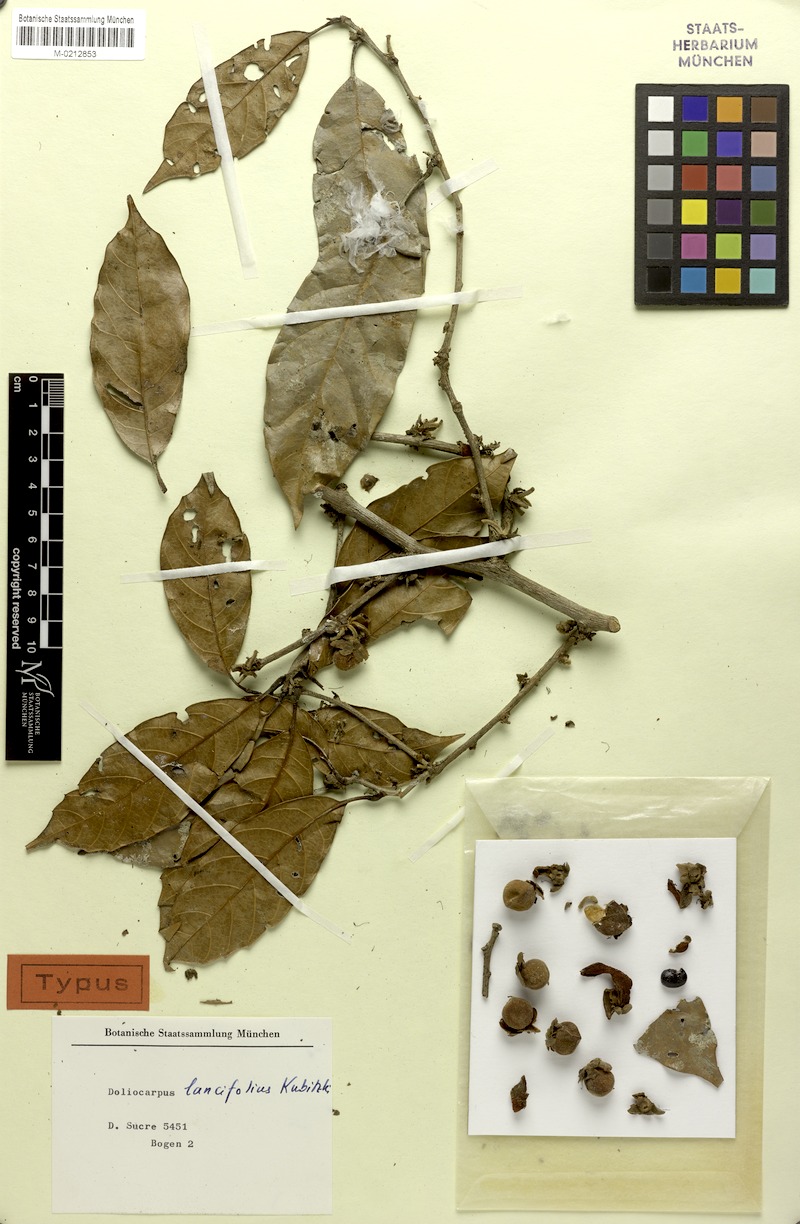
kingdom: Plantae
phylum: Tracheophyta
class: Magnoliopsida
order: Dilleniales
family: Dilleniaceae
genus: Doliocarpus
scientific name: Doliocarpus lancifolius
